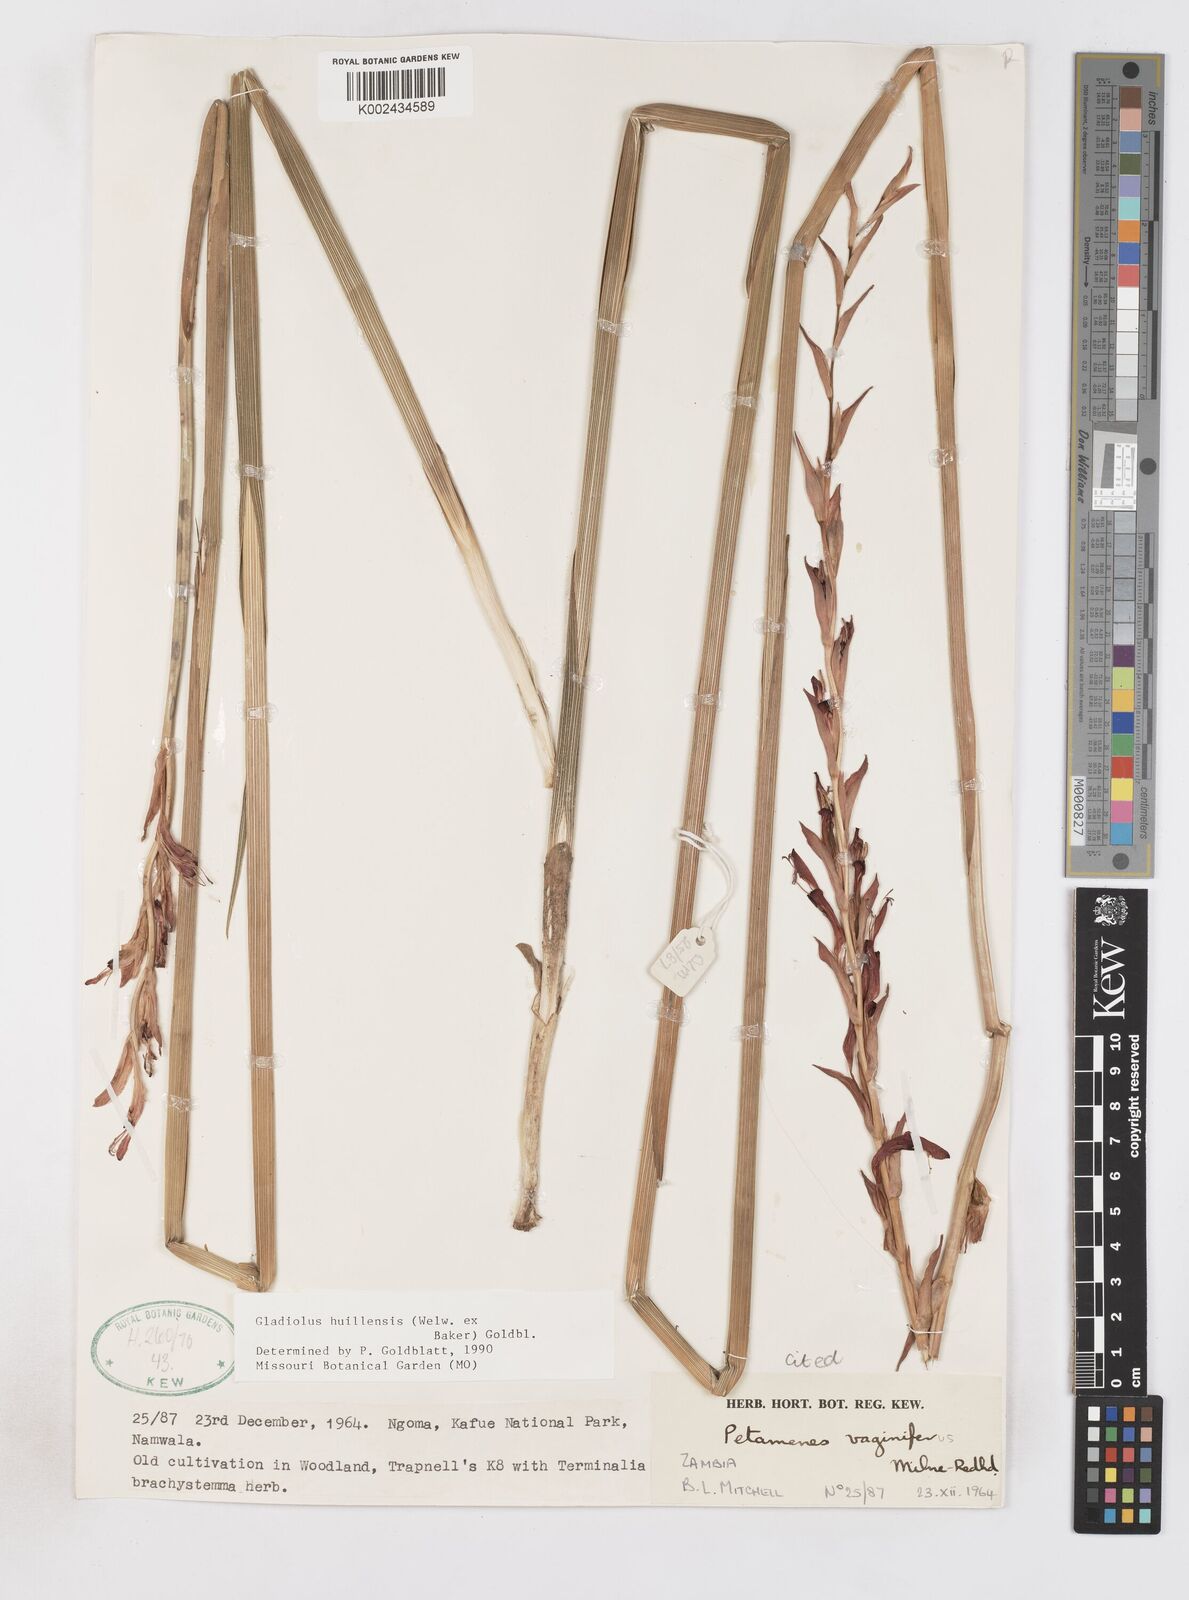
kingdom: Plantae
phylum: Tracheophyta
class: Liliopsida
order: Asparagales
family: Iridaceae
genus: Gladiolus
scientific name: Gladiolus huillensis
